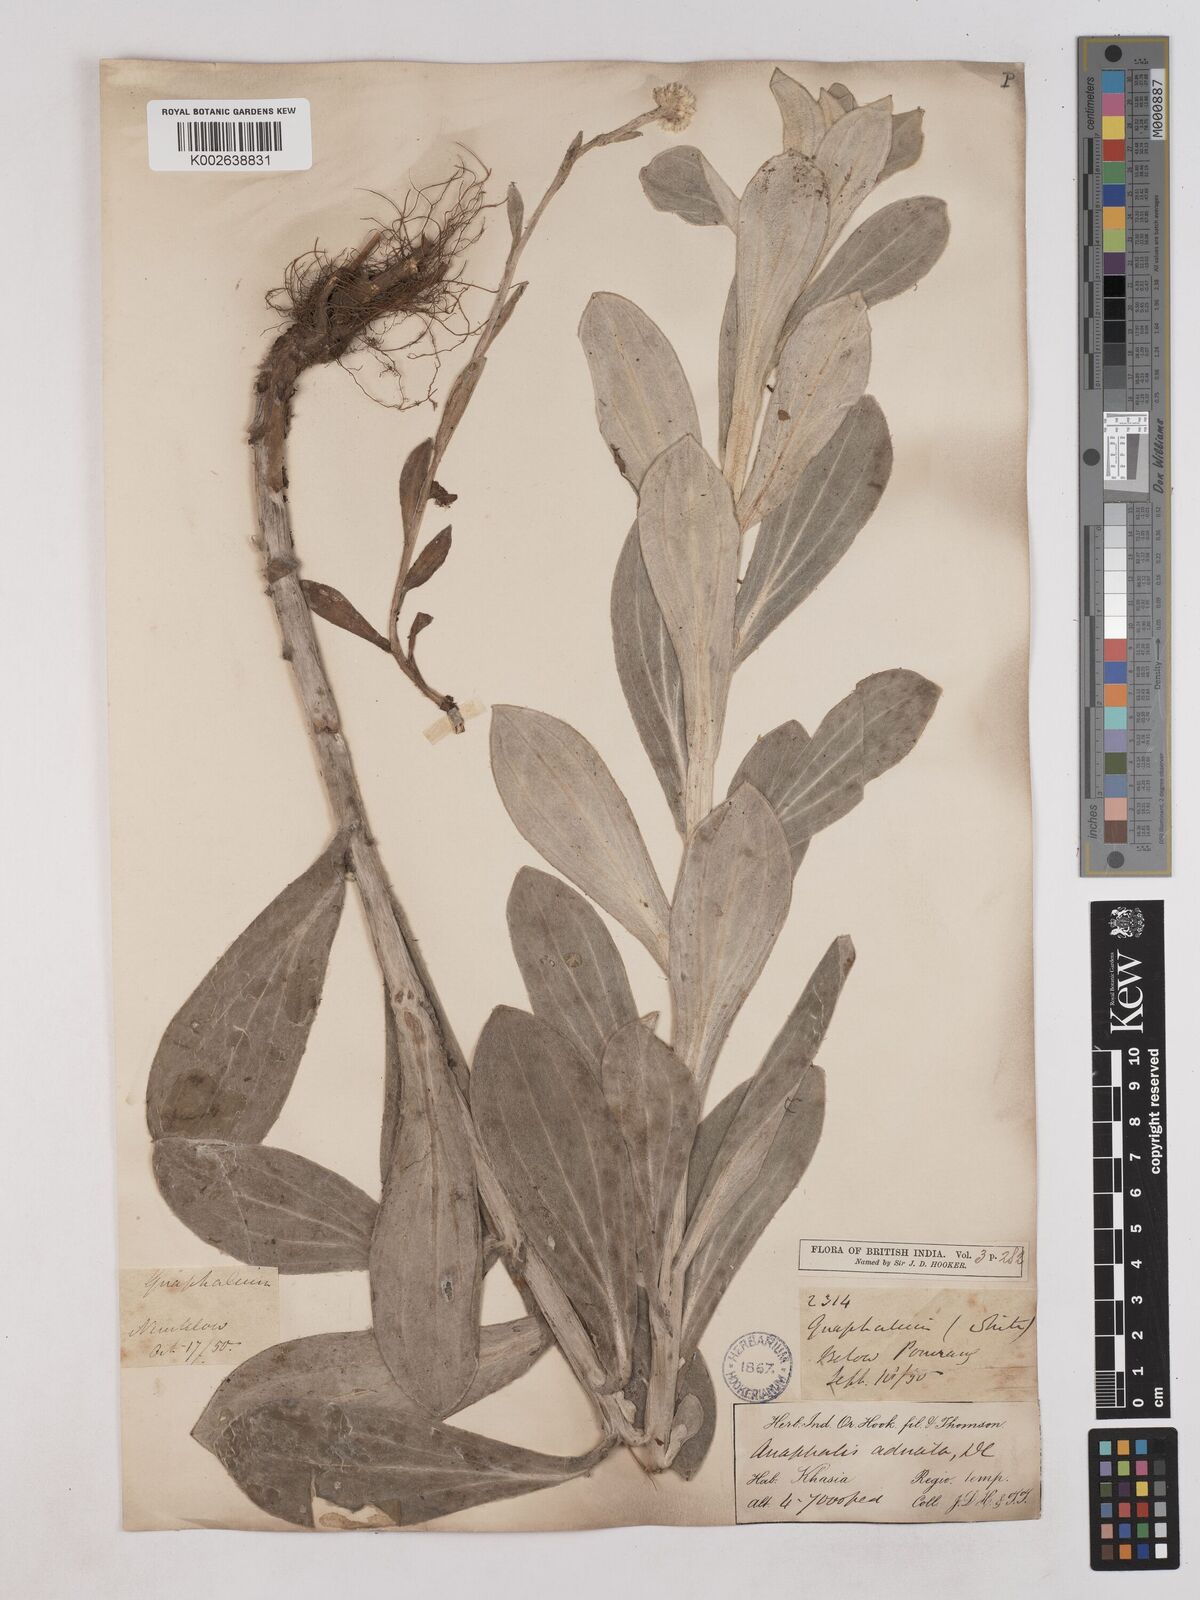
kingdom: Plantae
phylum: Tracheophyta
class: Magnoliopsida
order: Asterales
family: Asteraceae
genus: Pseudognaphalium
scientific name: Pseudognaphalium adnatum
